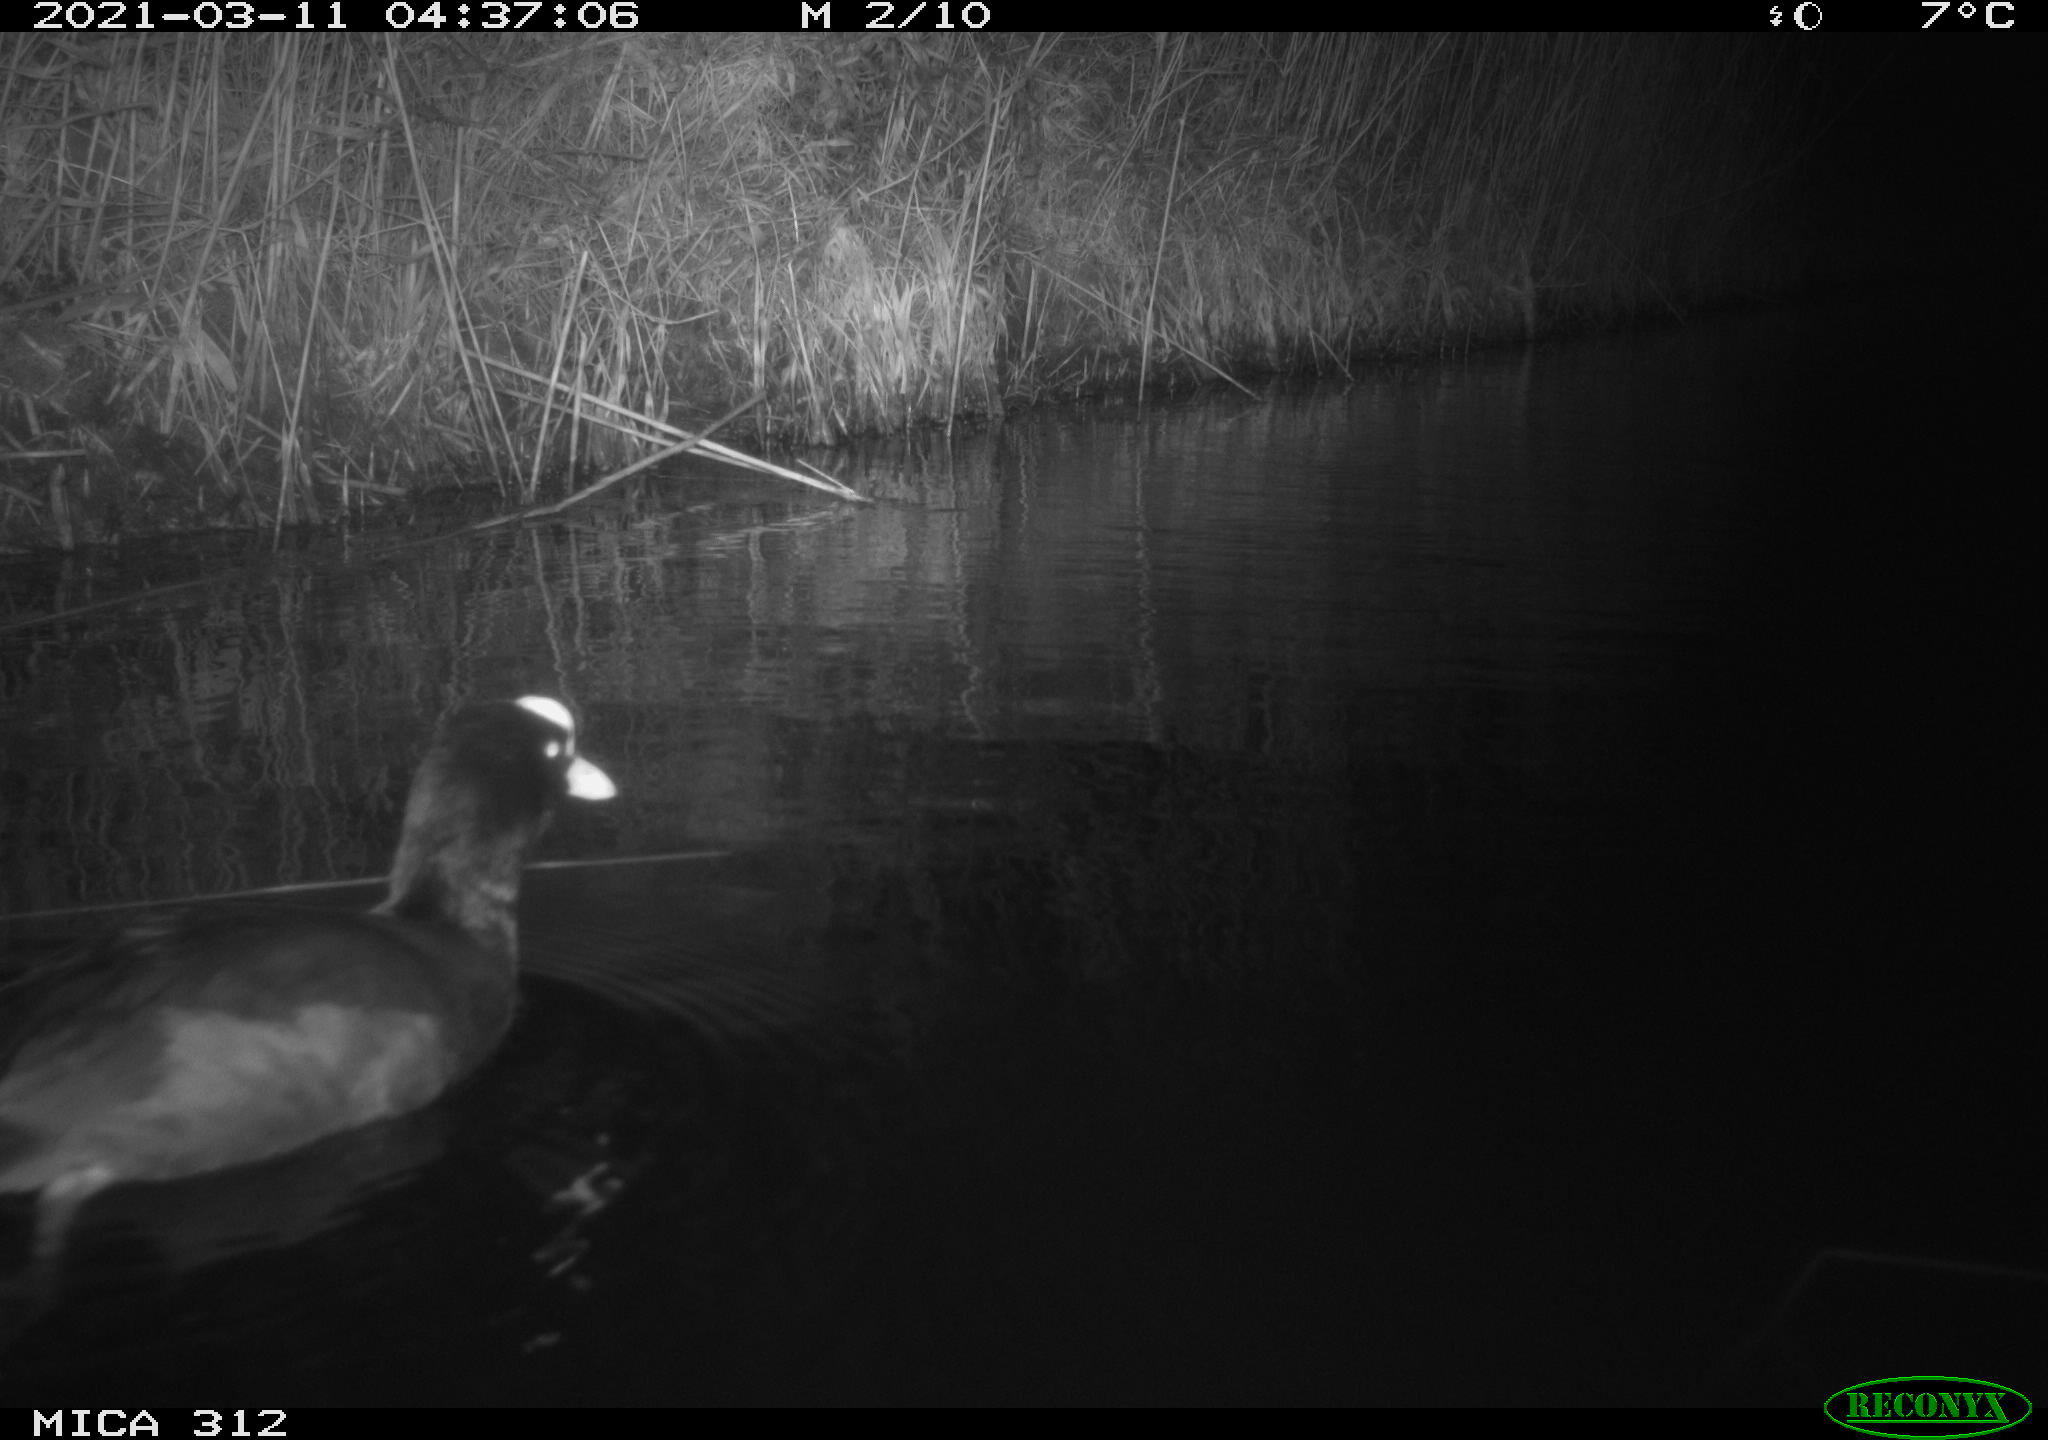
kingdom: Animalia
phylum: Chordata
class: Aves
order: Gruiformes
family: Rallidae
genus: Fulica
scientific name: Fulica atra
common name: Eurasian coot
